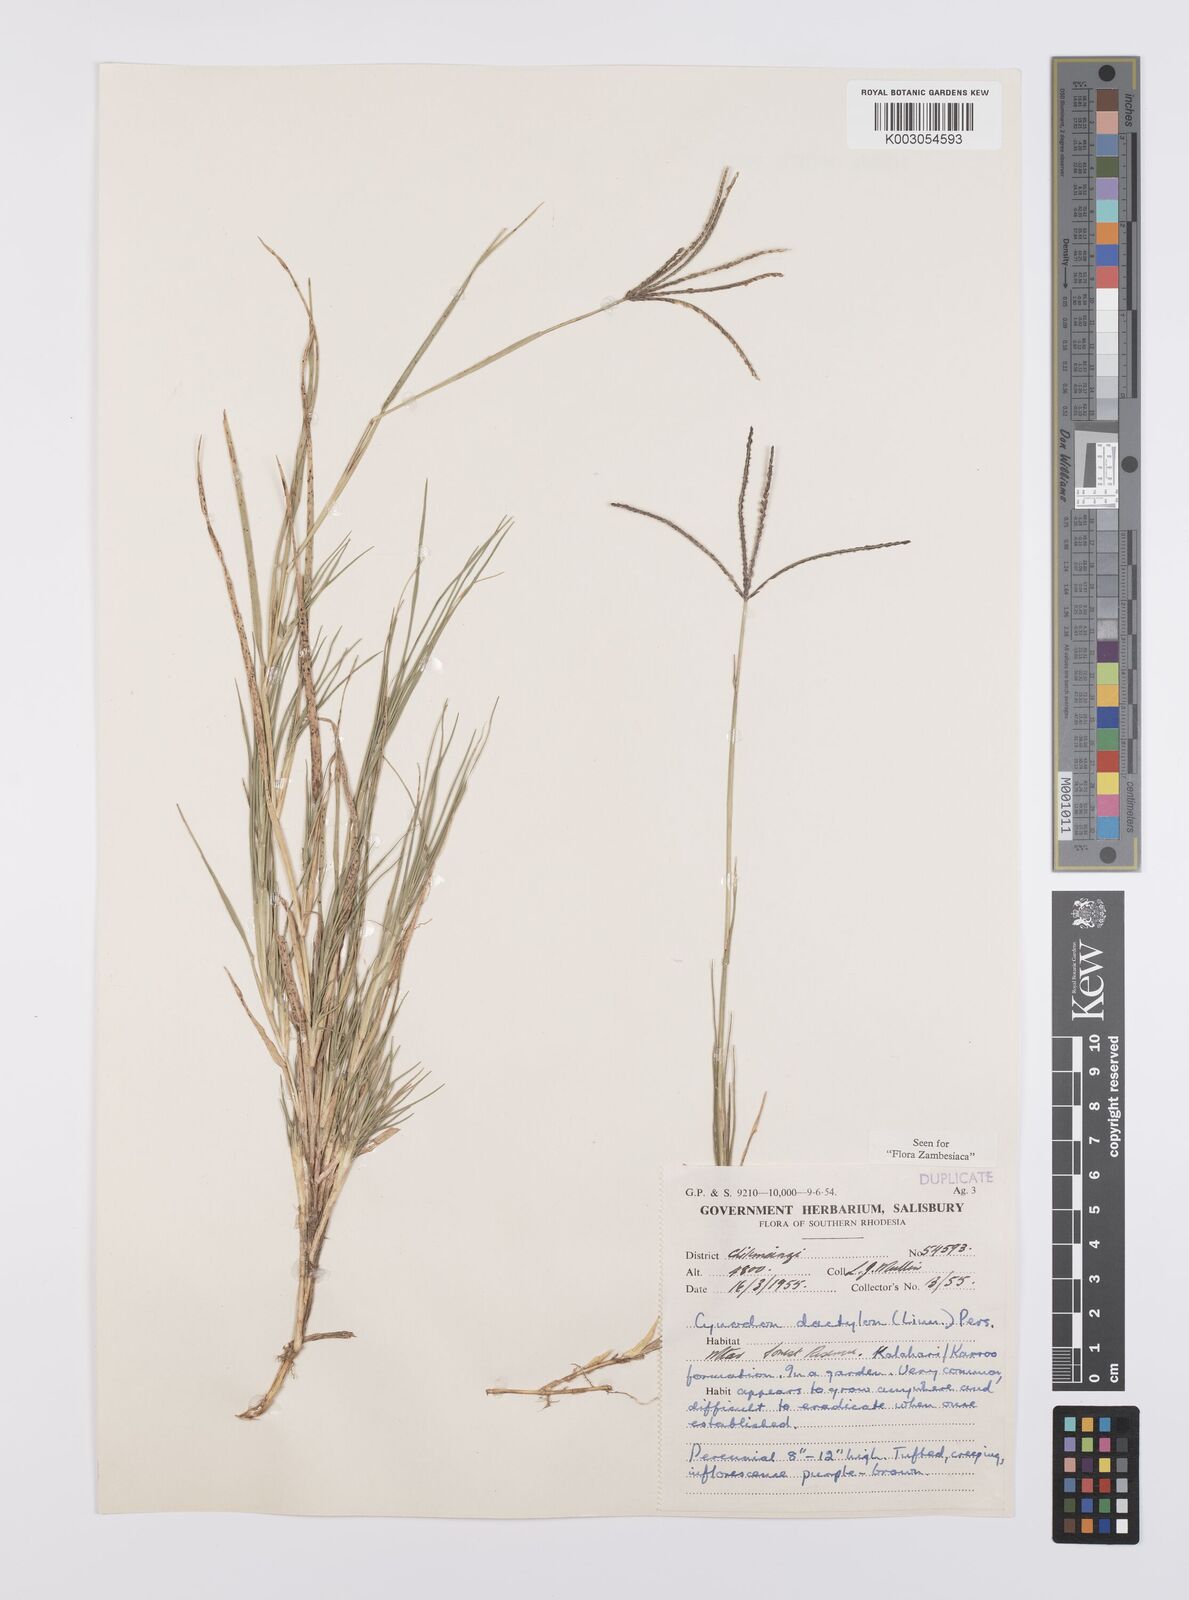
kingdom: Plantae
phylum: Tracheophyta
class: Liliopsida
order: Poales
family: Poaceae
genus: Cynodon
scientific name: Cynodon dactylon
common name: Bermuda grass
